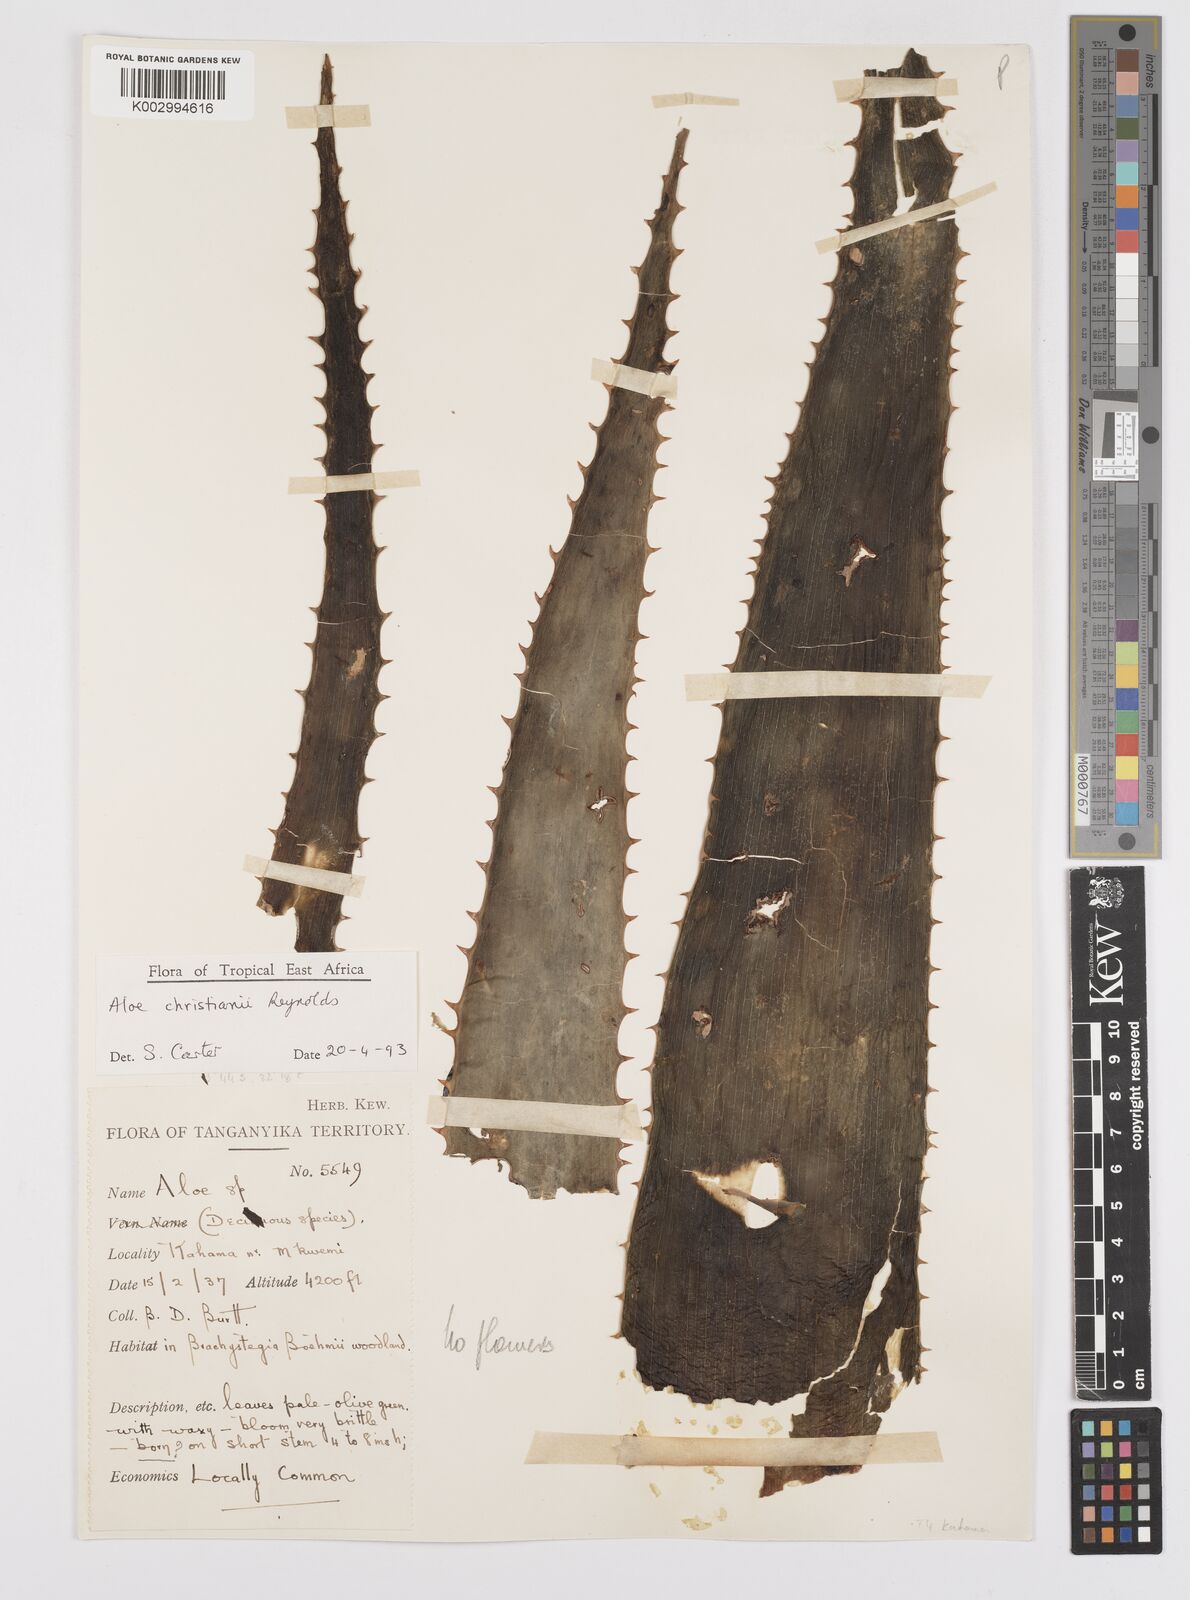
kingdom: Plantae
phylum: Tracheophyta
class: Liliopsida
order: Asparagales
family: Asphodelaceae
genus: Aloe
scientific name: Aloe christianii
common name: Basil christian's aloe
